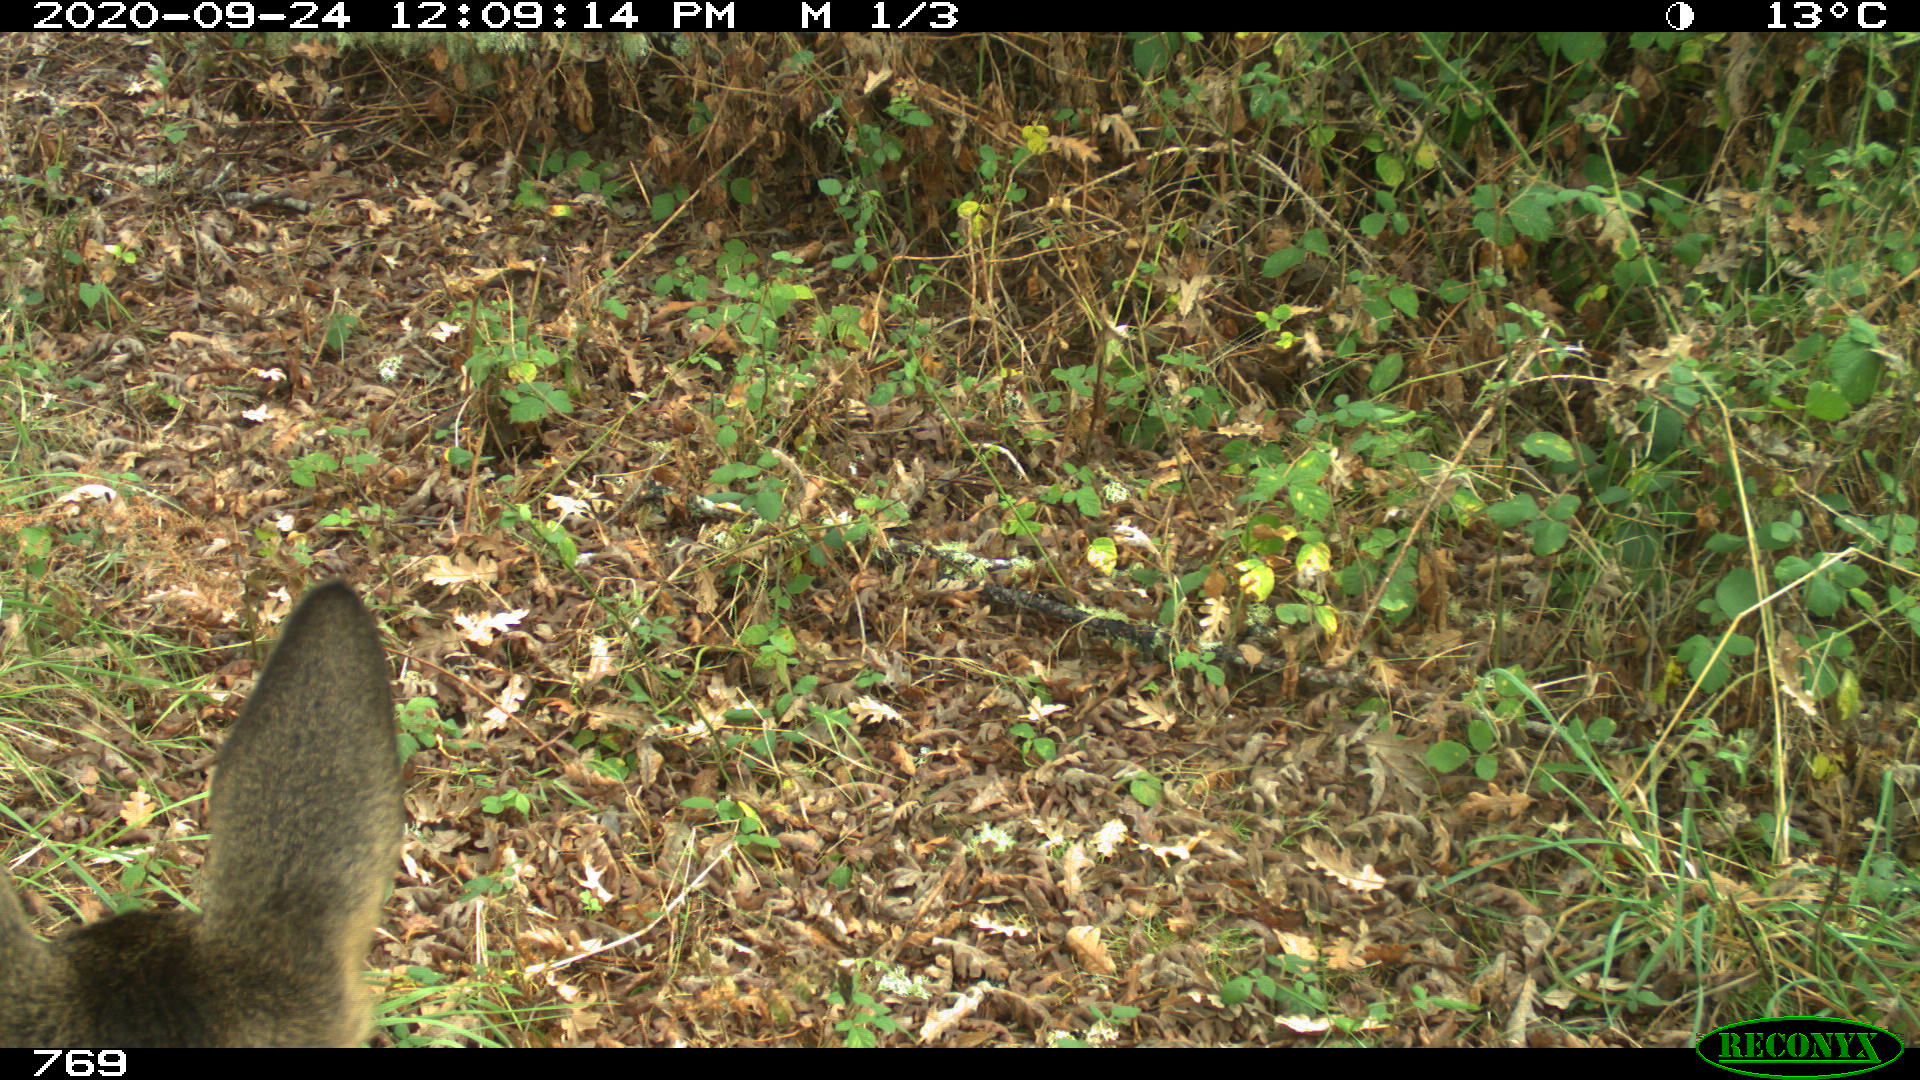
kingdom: Animalia
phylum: Chordata
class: Mammalia
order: Artiodactyla
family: Cervidae
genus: Capreolus
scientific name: Capreolus capreolus
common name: Western roe deer
